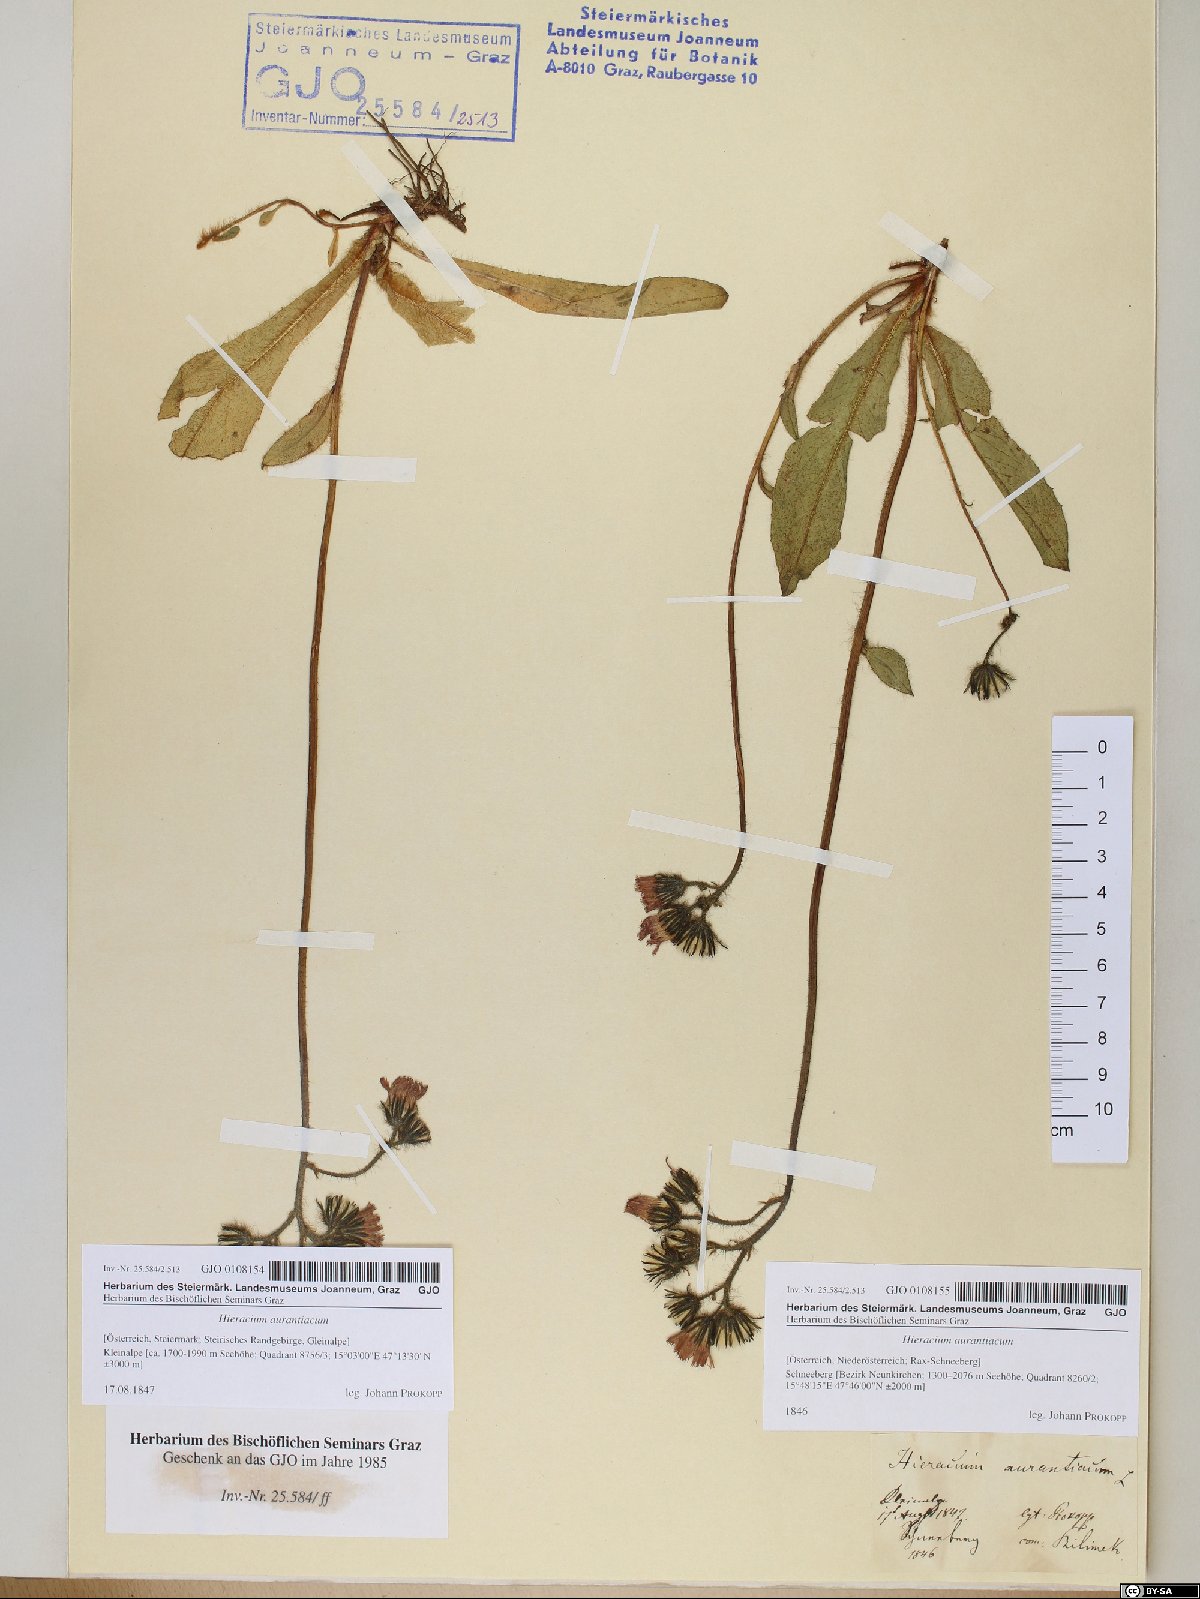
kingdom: Plantae
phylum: Tracheophyta
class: Magnoliopsida
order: Asterales
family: Asteraceae
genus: Pilosella
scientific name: Pilosella aurantiaca
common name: Fox-and-cubs
